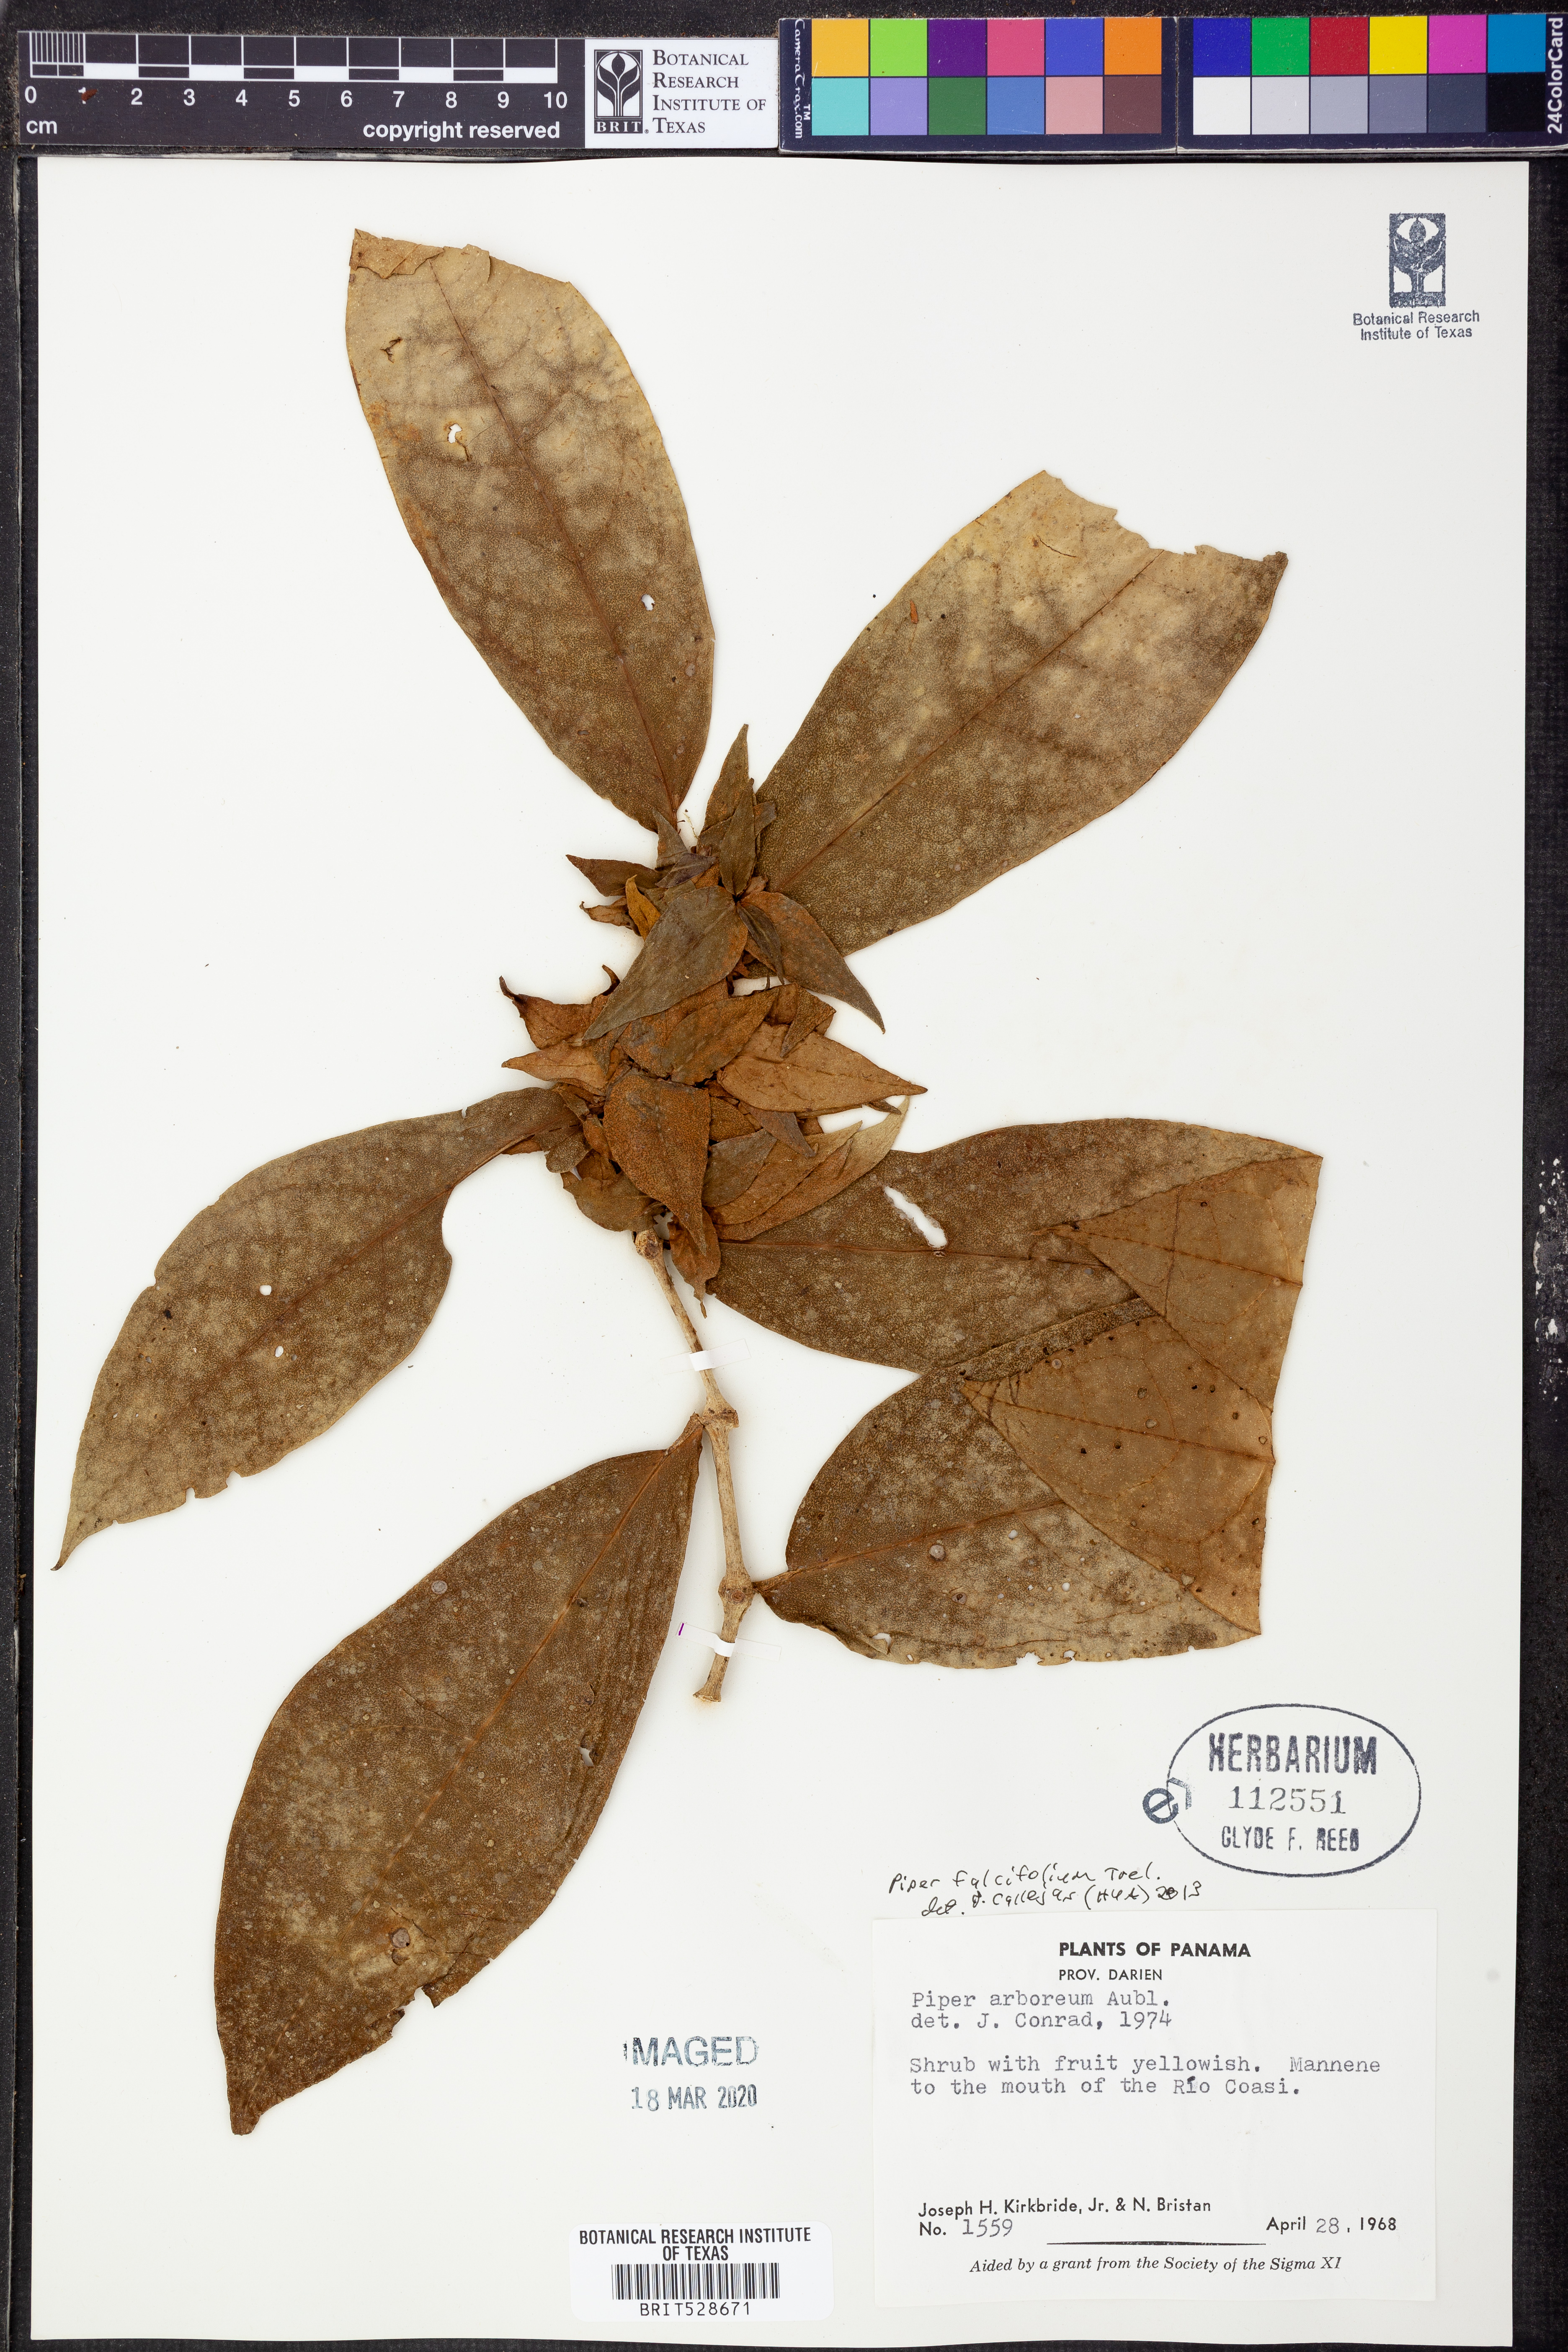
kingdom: Plantae
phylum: Tracheophyta
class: Magnoliopsida
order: Piperales
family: Piperaceae
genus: Piper
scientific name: Piper falcifolium
